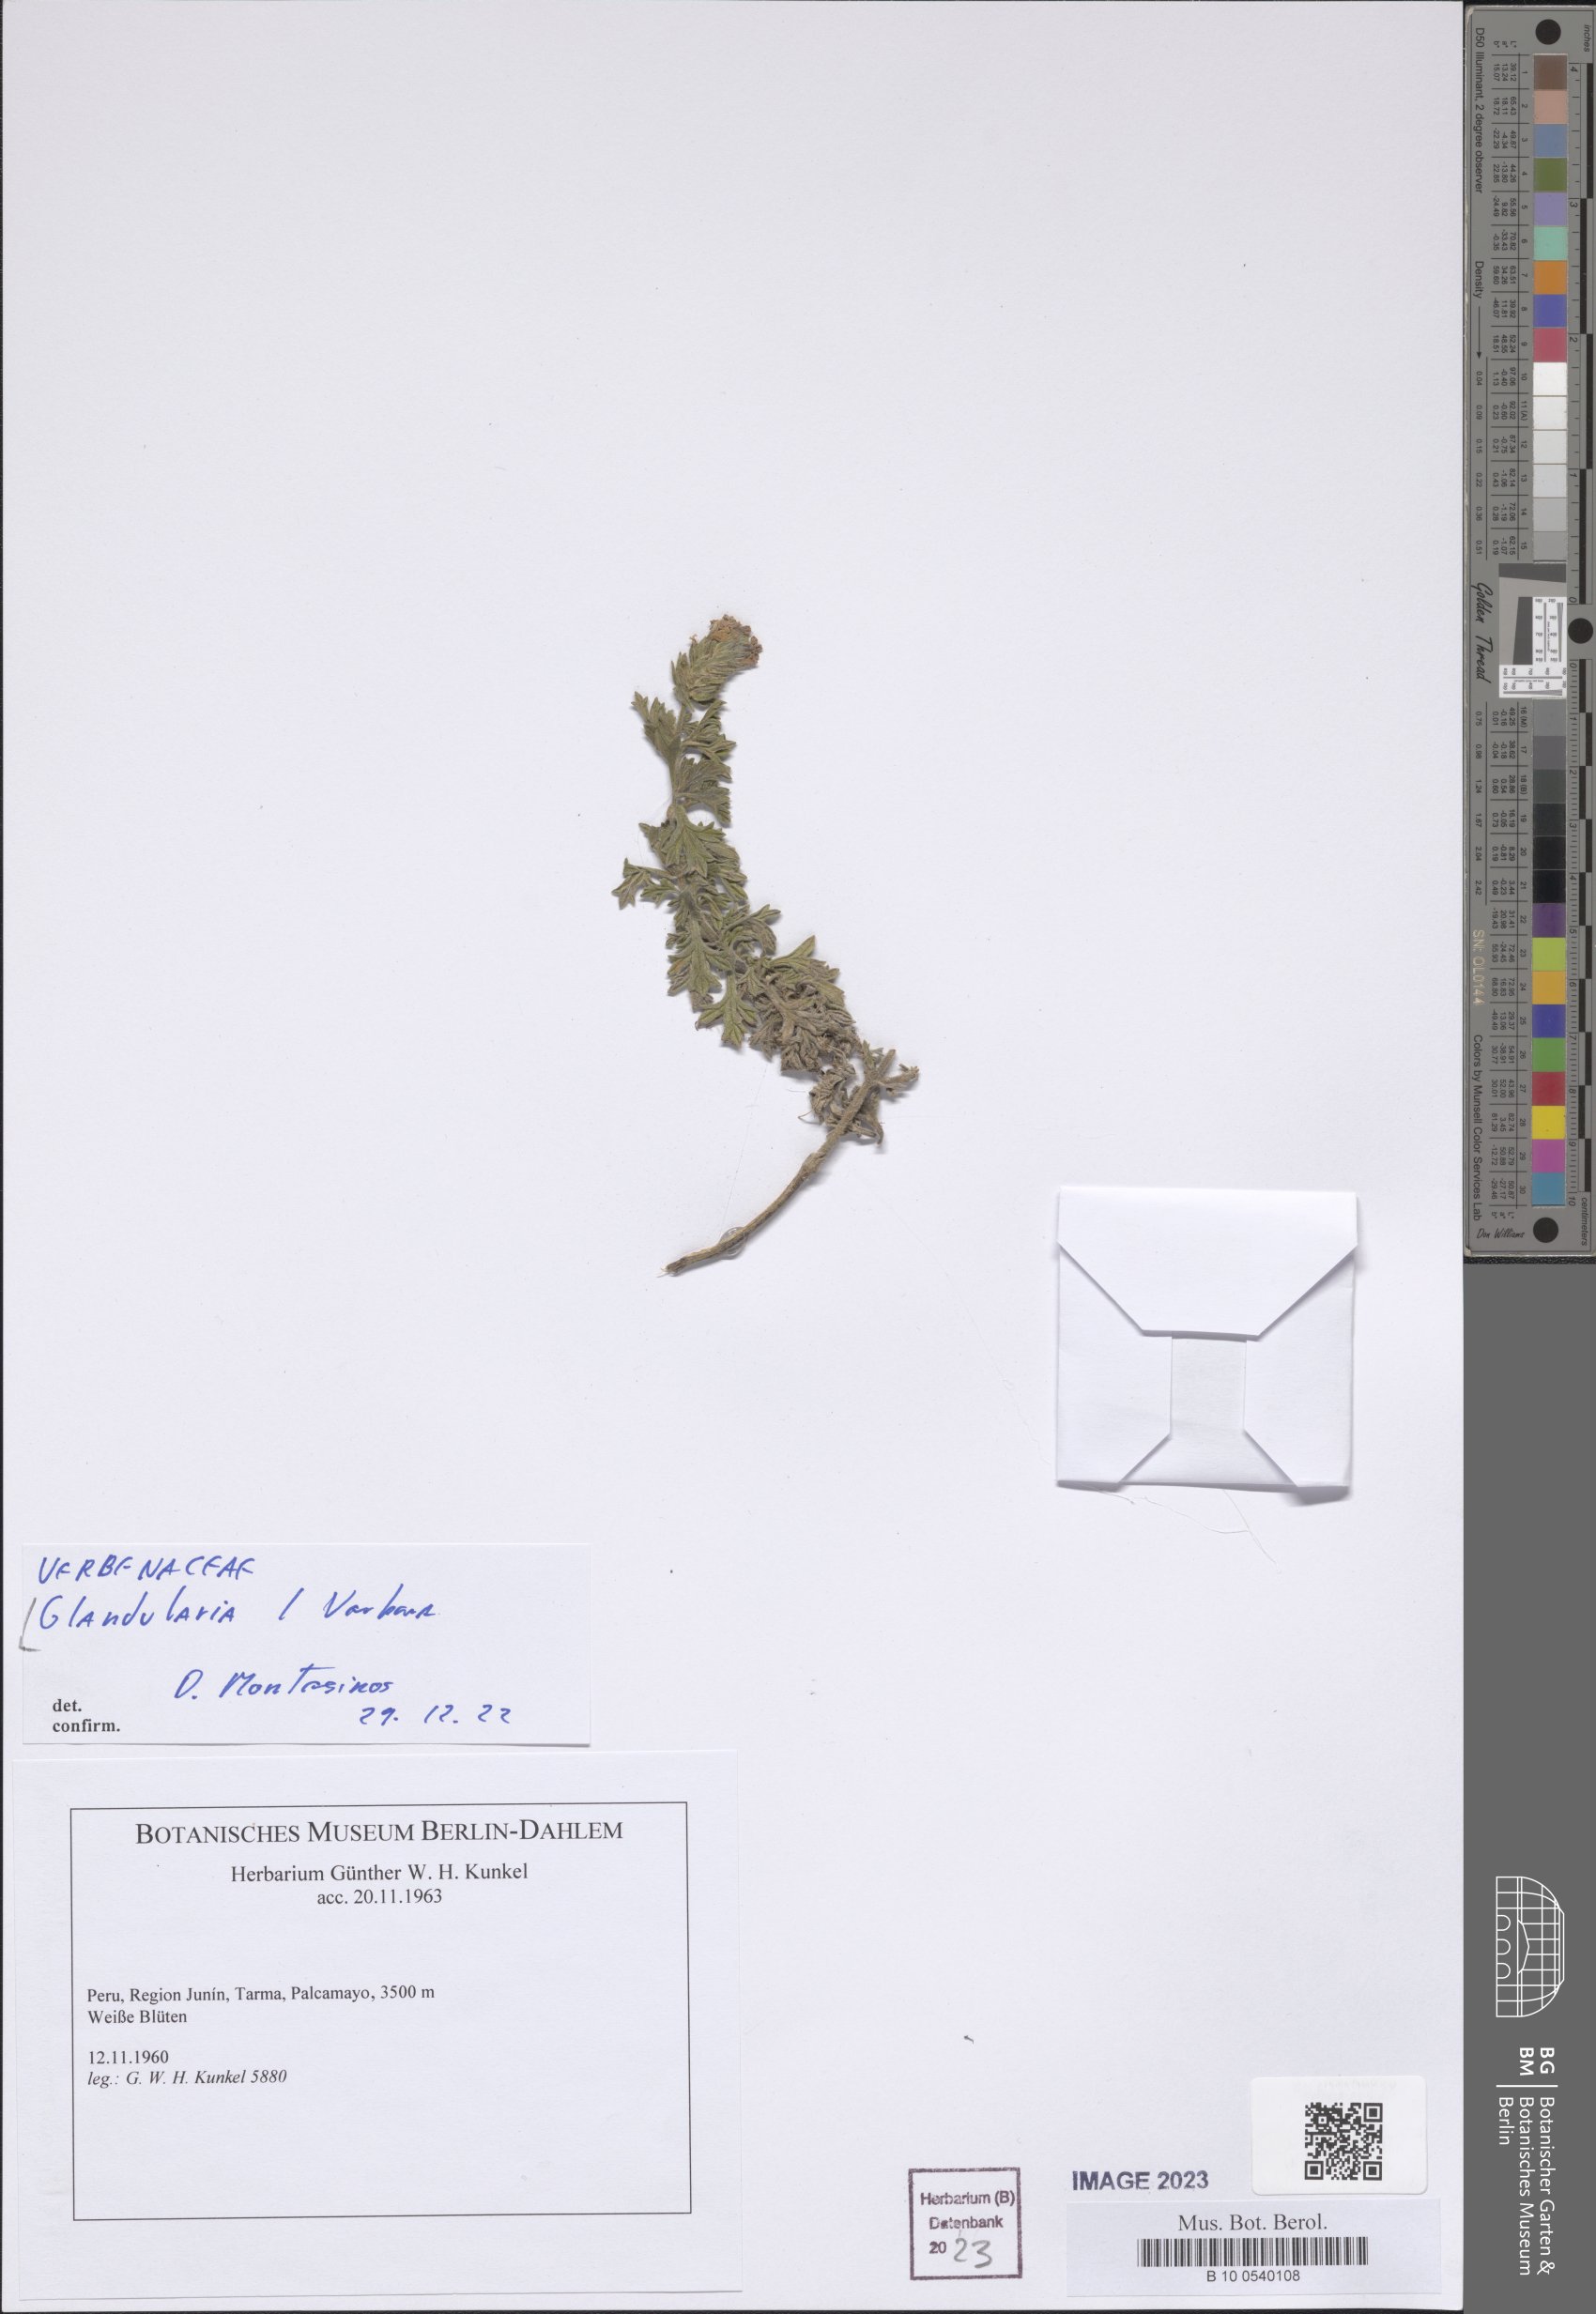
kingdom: Plantae
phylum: Tracheophyta
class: Magnoliopsida
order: Lamiales
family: Verbenaceae
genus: Verbena
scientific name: Verbena
